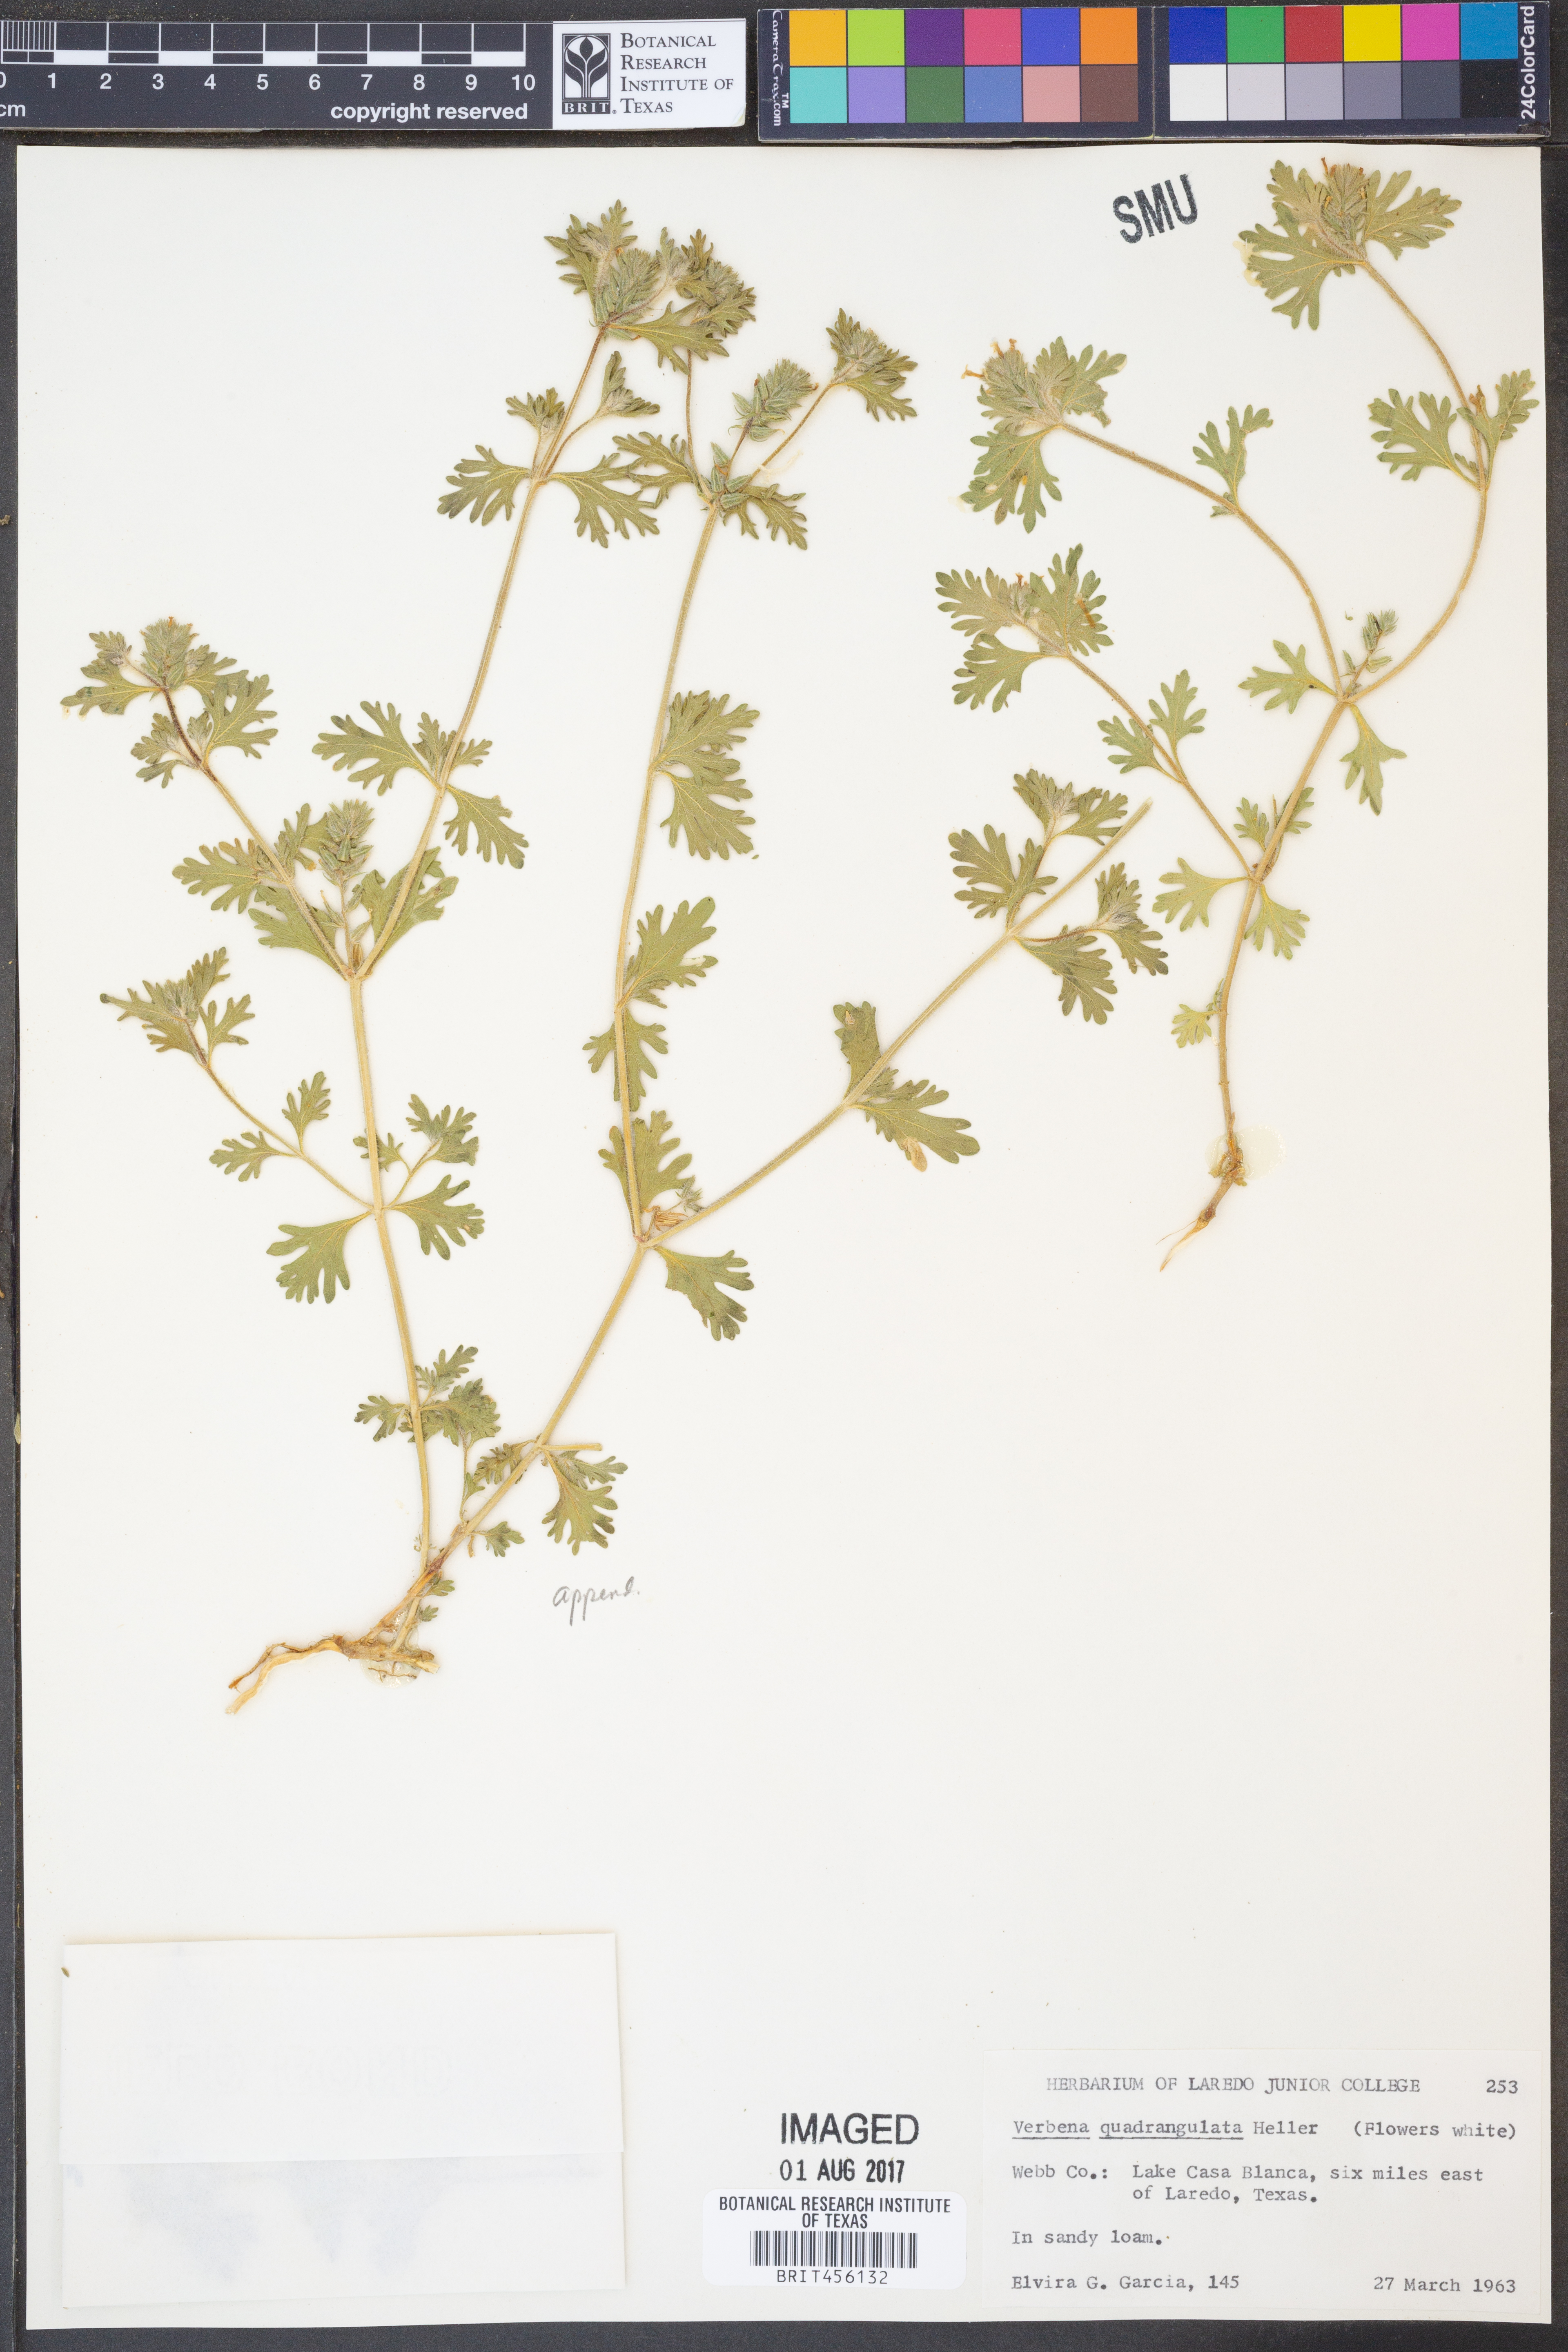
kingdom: Plantae
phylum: Tracheophyta
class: Magnoliopsida
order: Lamiales
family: Verbenaceae
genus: Verbena
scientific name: Verbena quadrangulata
